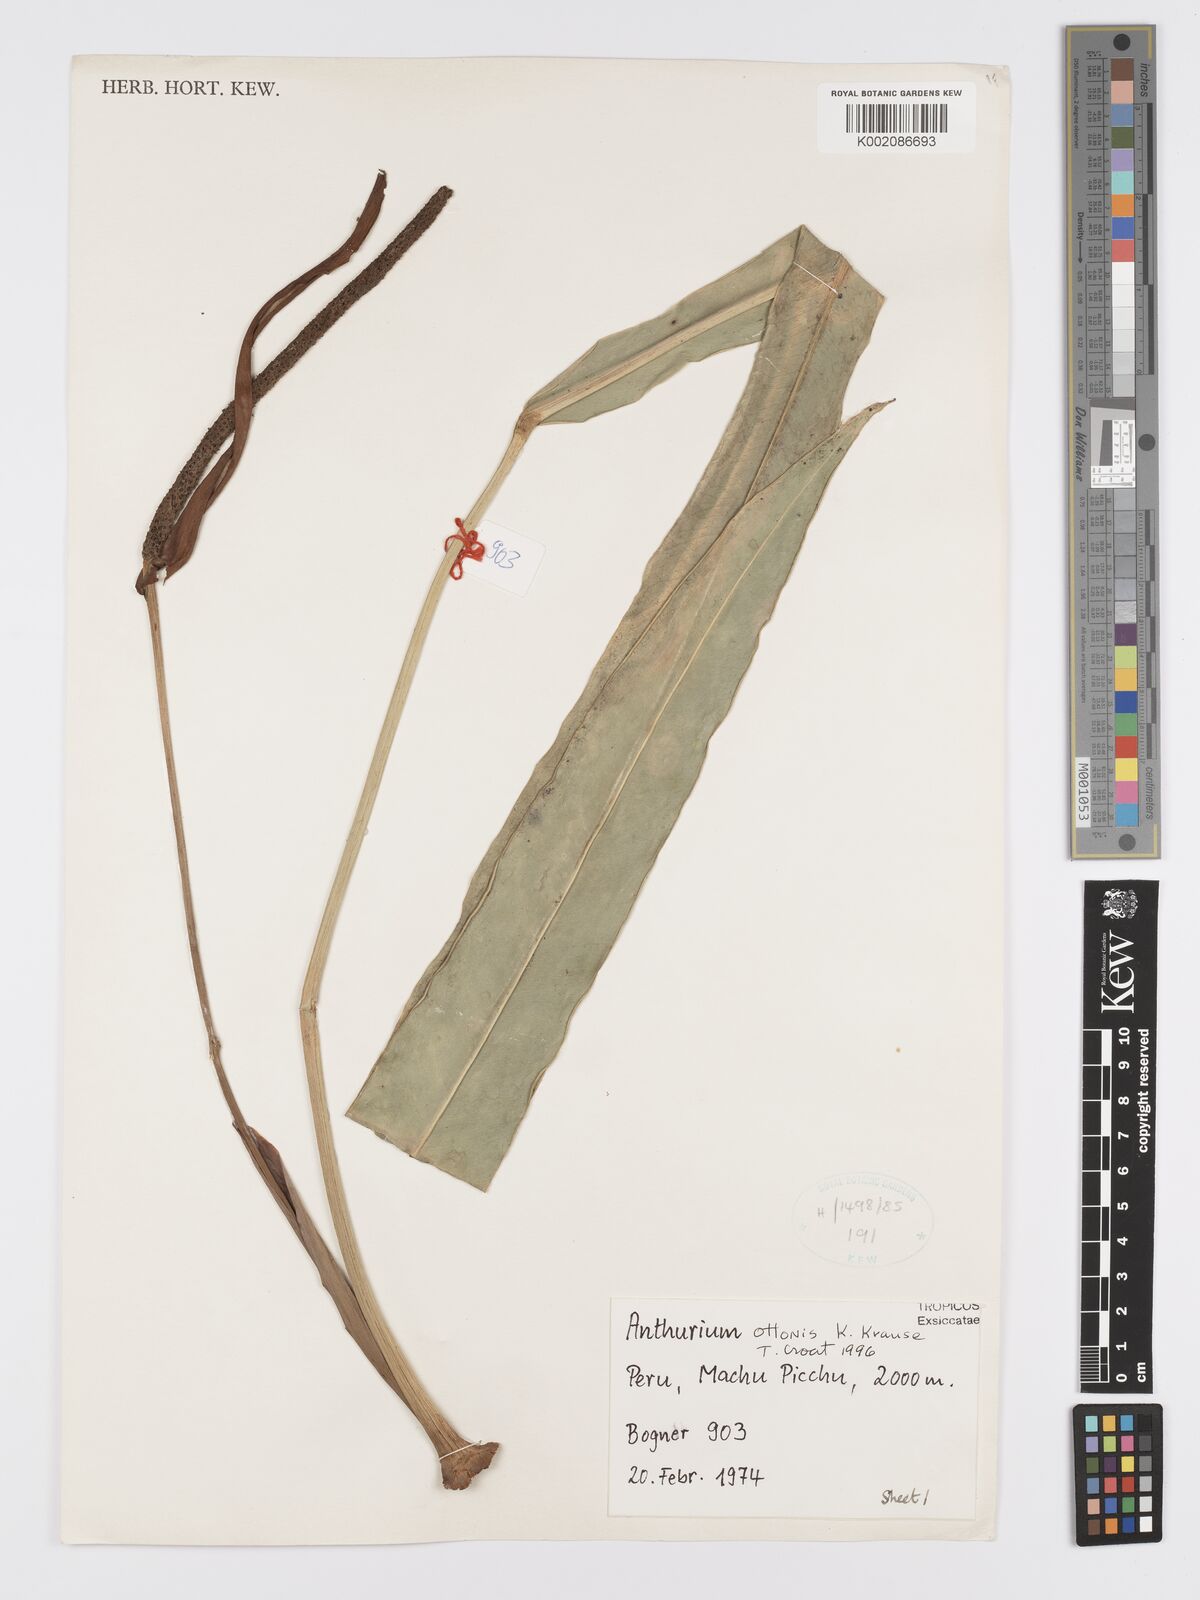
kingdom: Plantae
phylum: Tracheophyta
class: Liliopsida
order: Alismatales
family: Araceae
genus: Anthurium
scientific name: Anthurium ottonis
